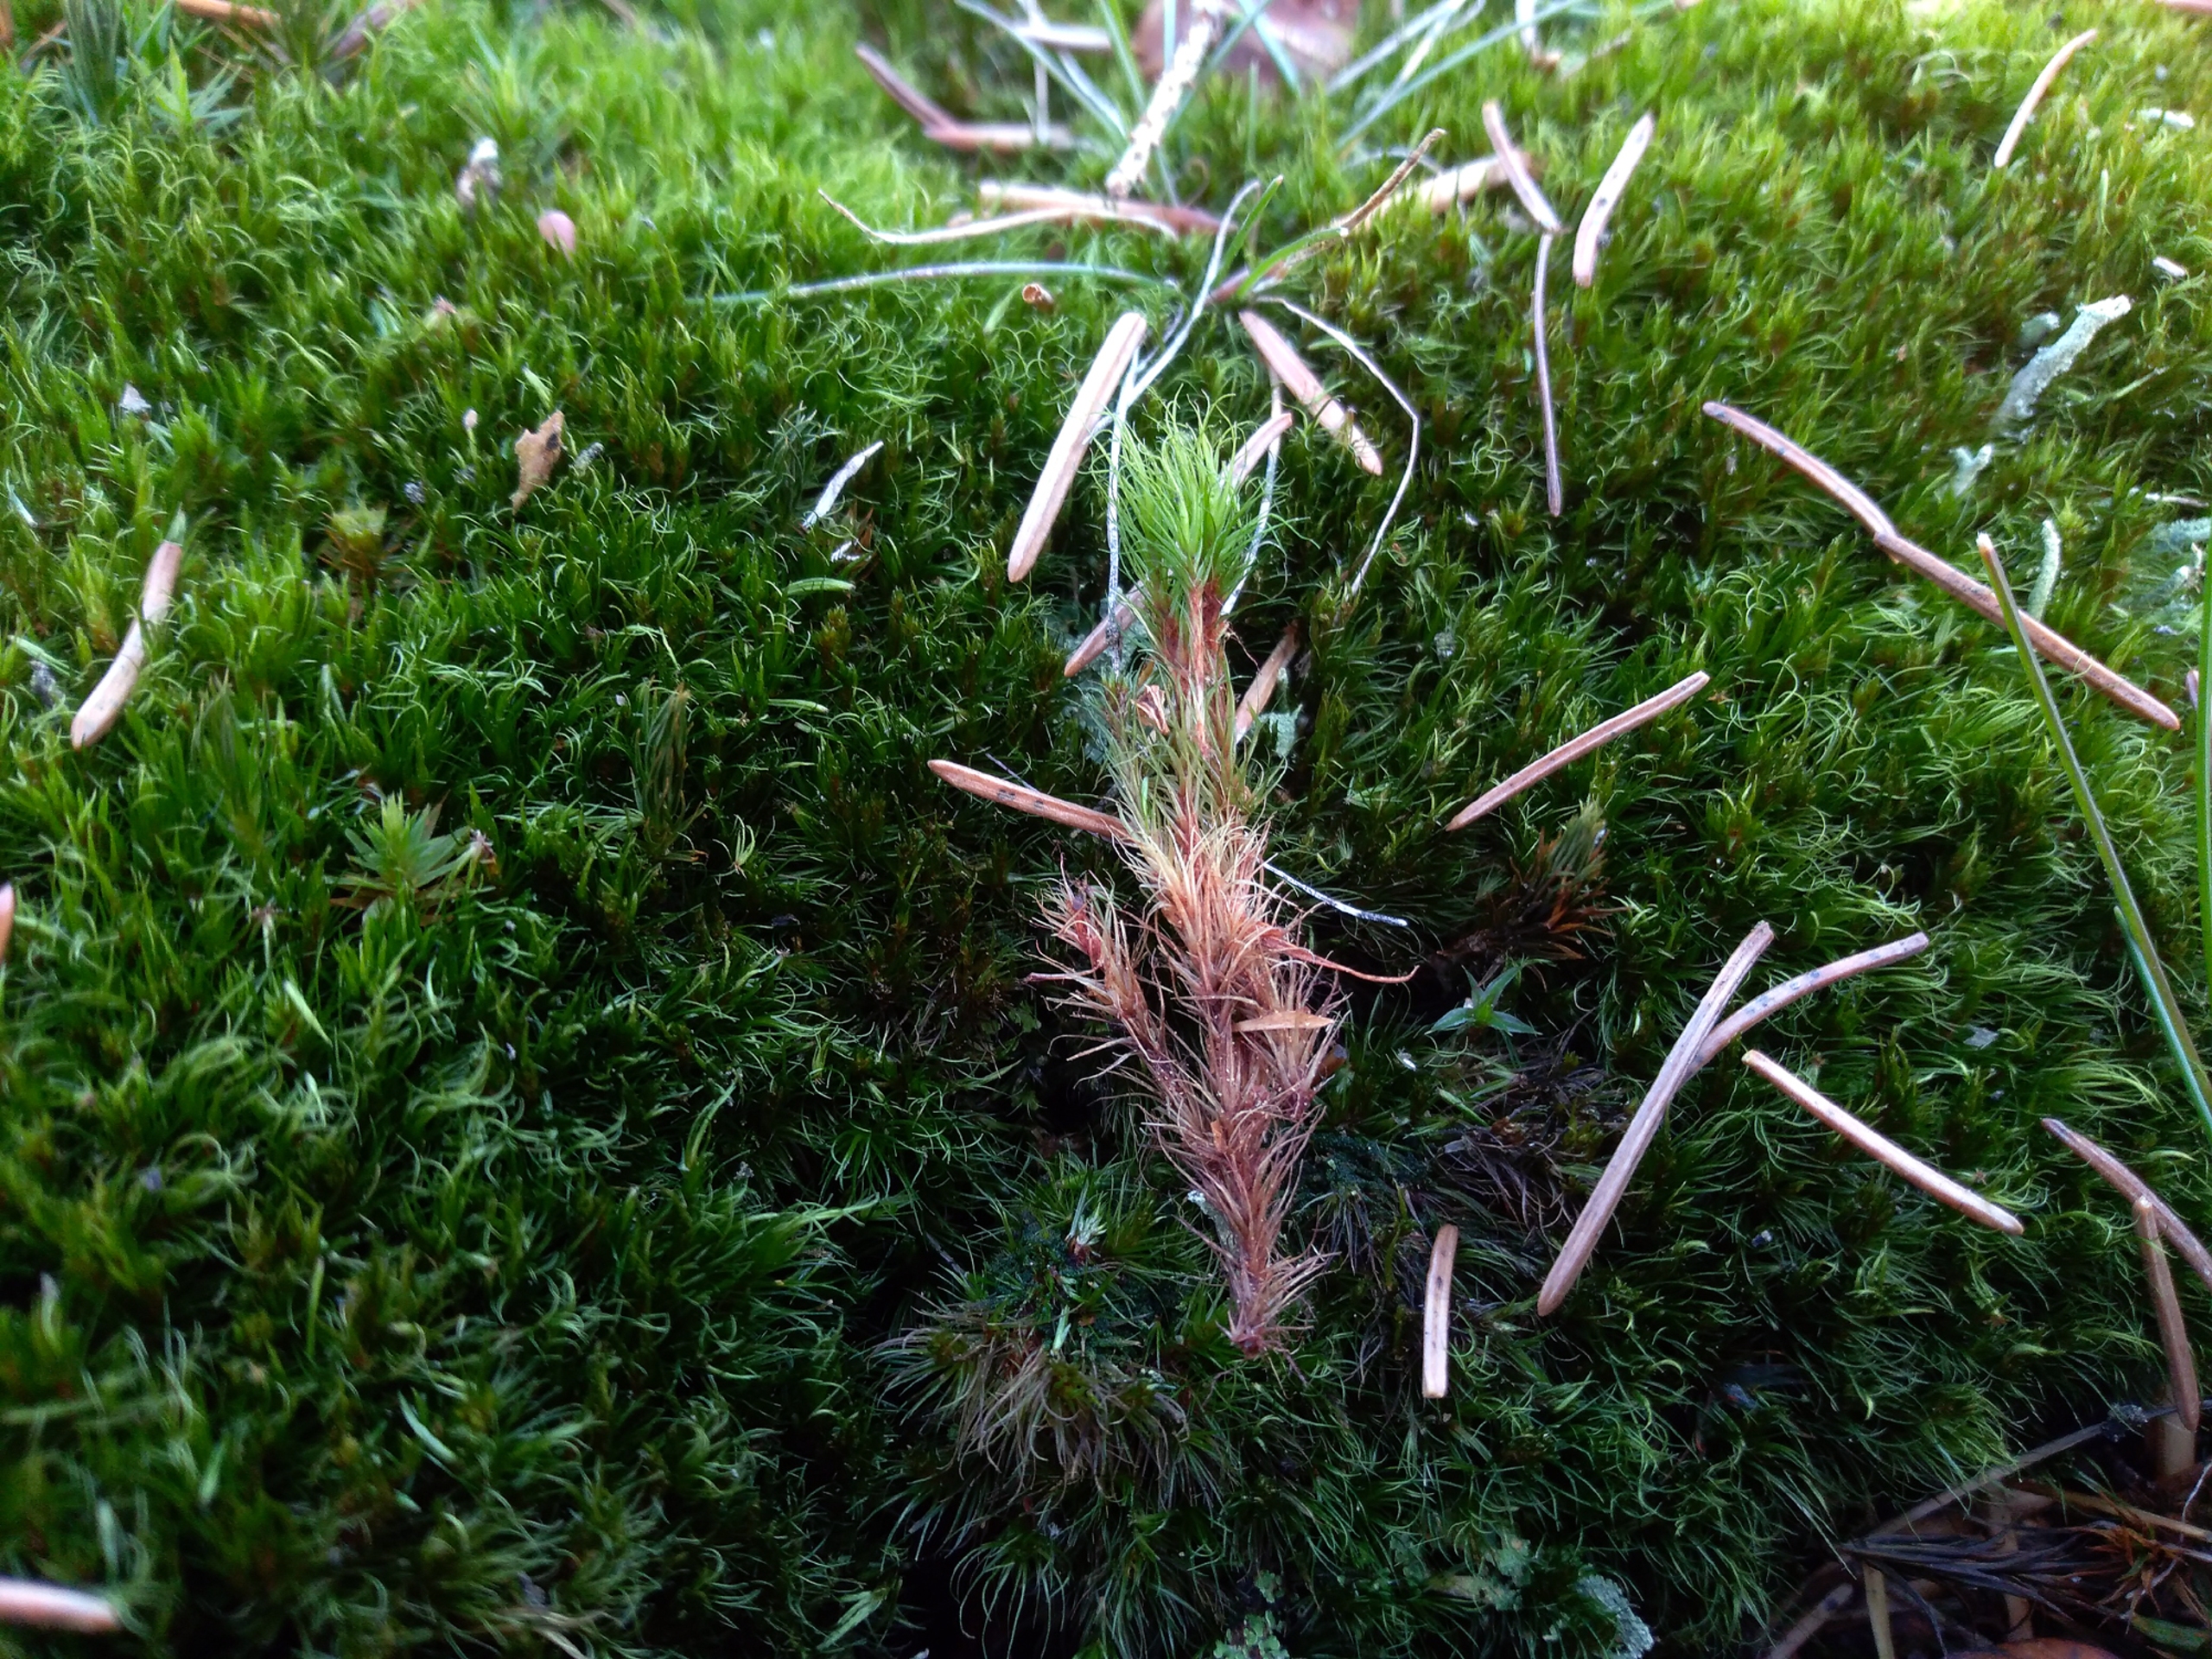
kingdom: Plantae
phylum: Bryophyta
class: Bryopsida
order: Dicranales
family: Leucobryaceae
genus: Campylopus
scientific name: Campylopus flexuosus
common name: Filtet bredribbe
